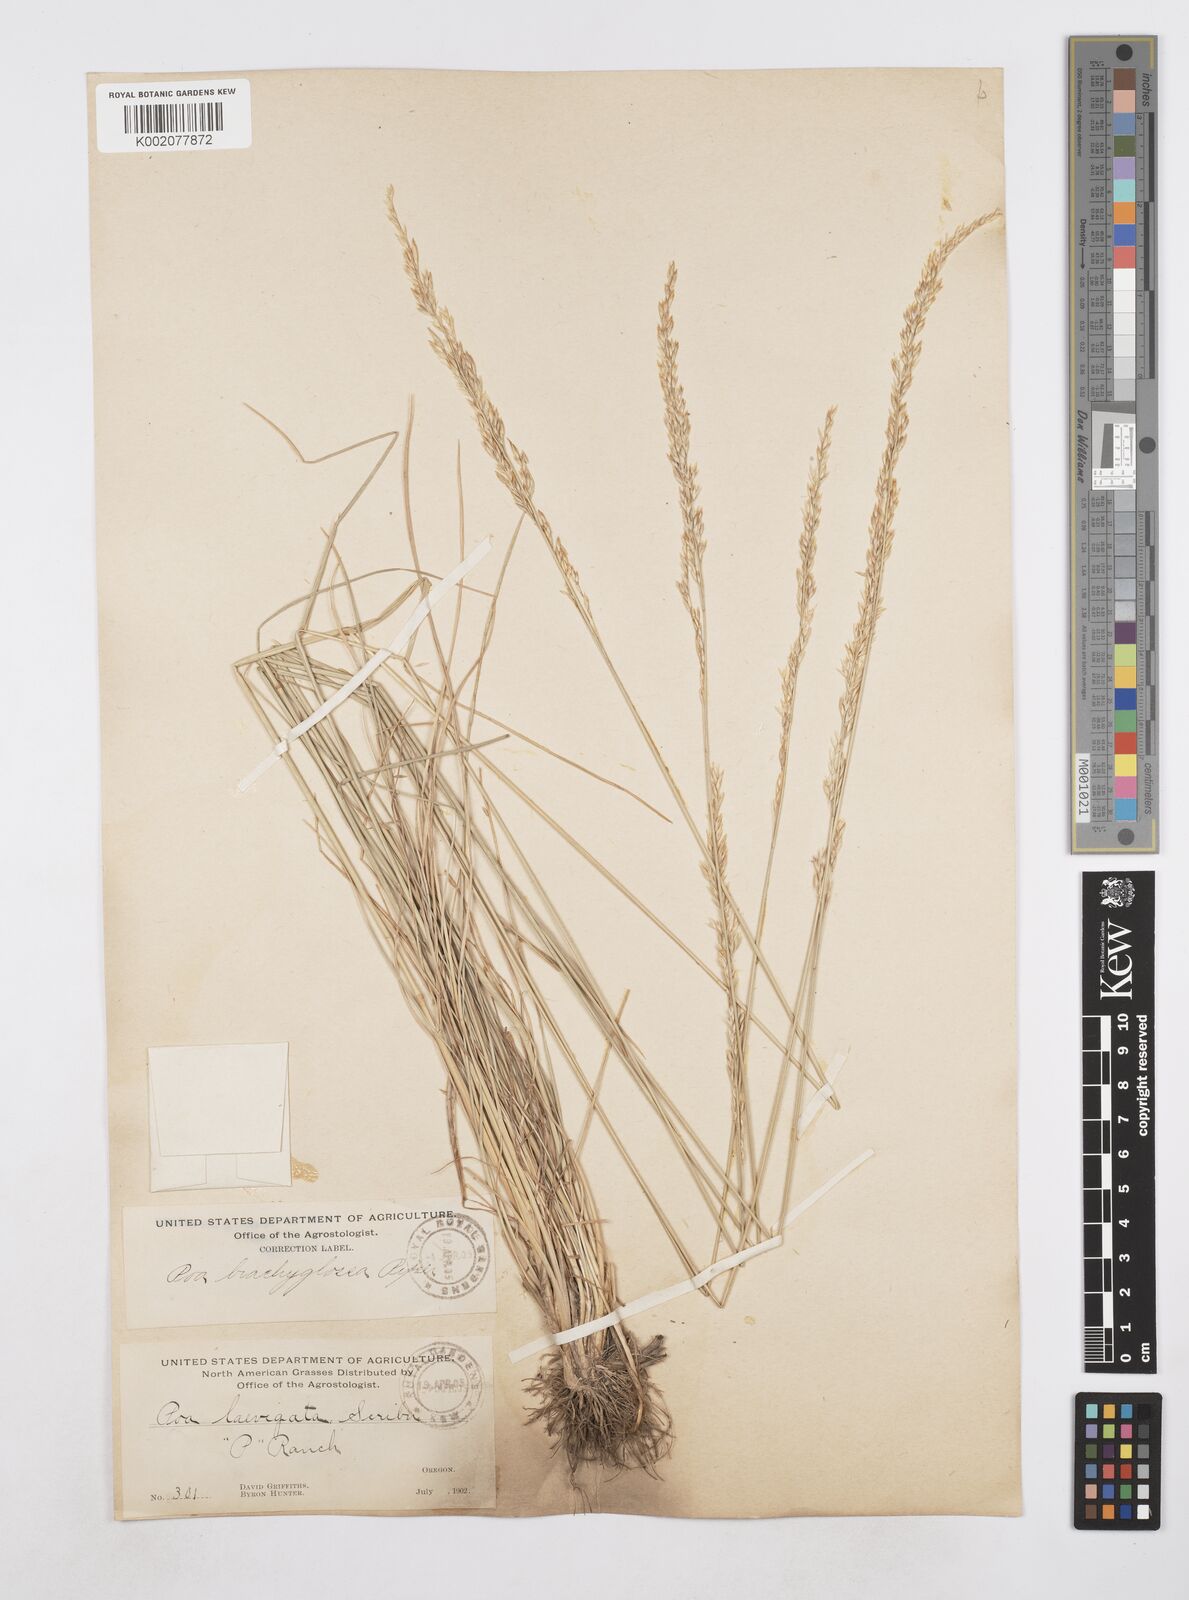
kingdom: Plantae
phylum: Tracheophyta
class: Liliopsida
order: Poales
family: Poaceae
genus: Poa
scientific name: Poa secunda
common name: Sandberg bluegrass
